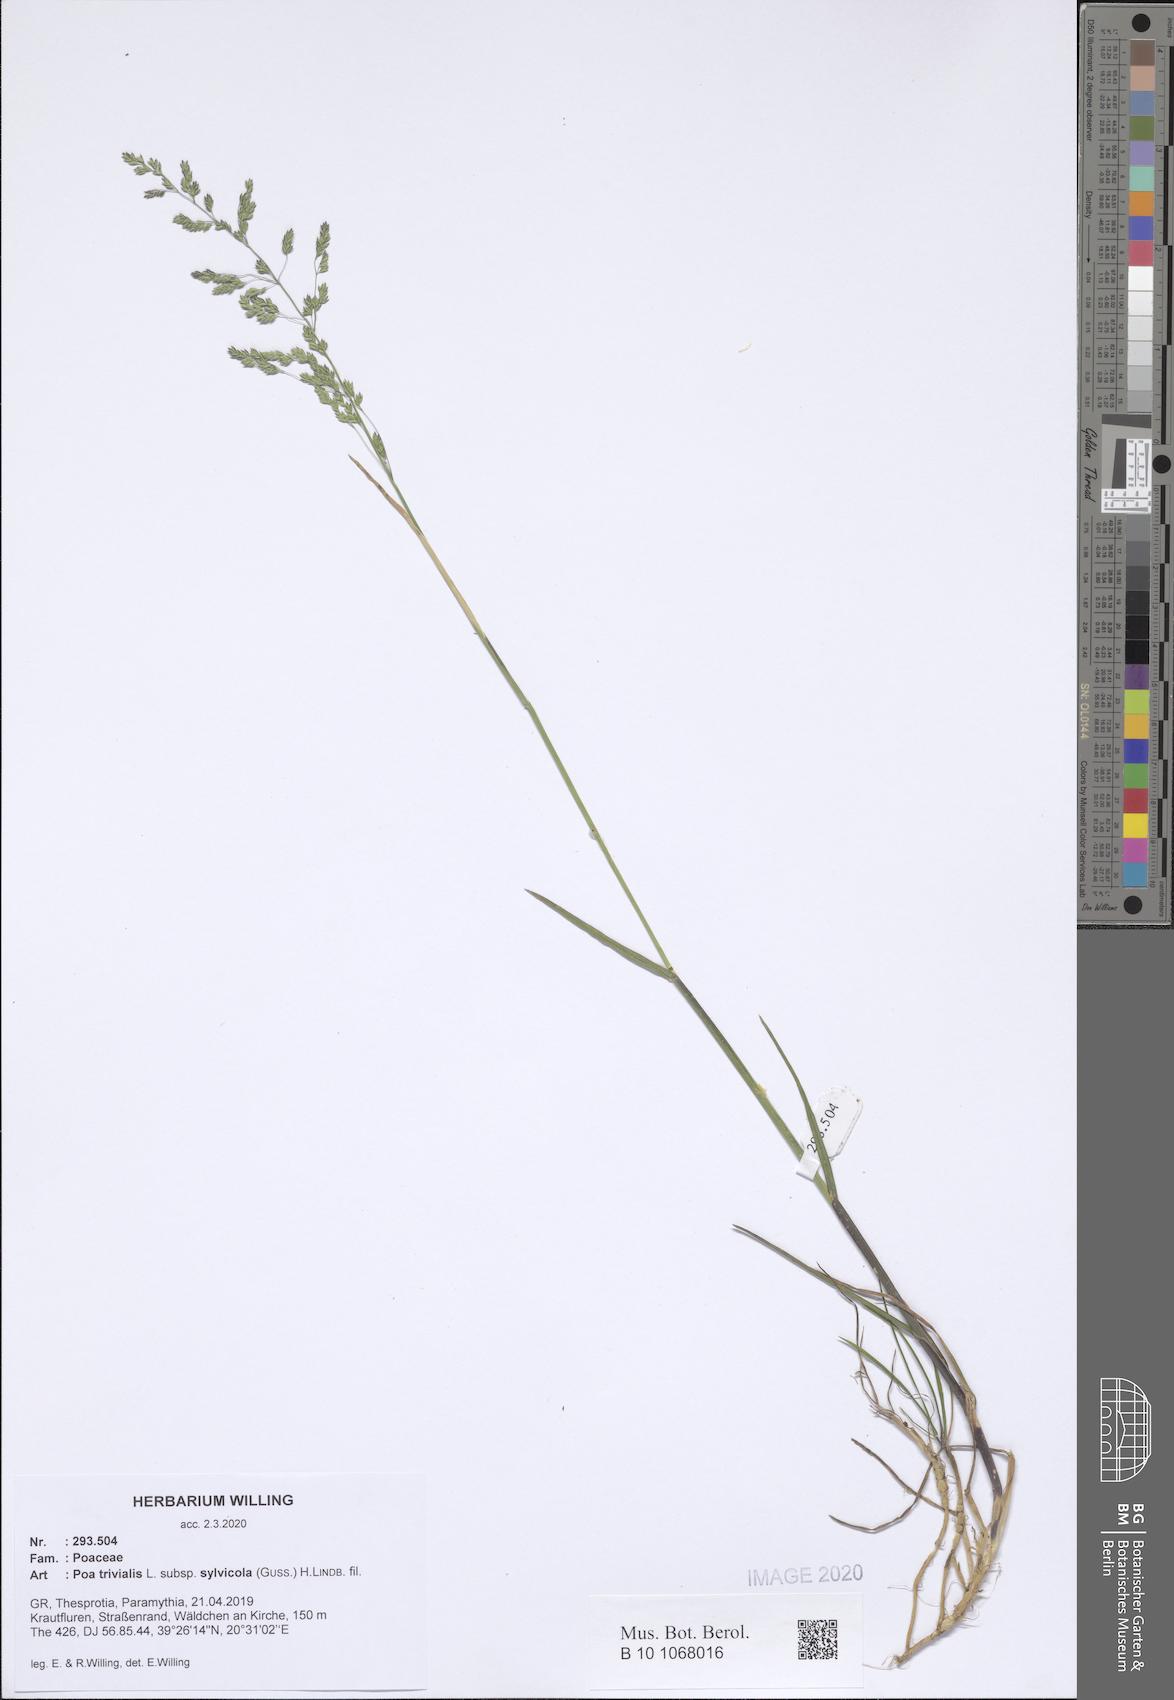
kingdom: Plantae
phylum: Tracheophyta
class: Liliopsida
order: Poales
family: Poaceae
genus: Poa
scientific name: Poa trivialis
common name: Rough bluegrass
